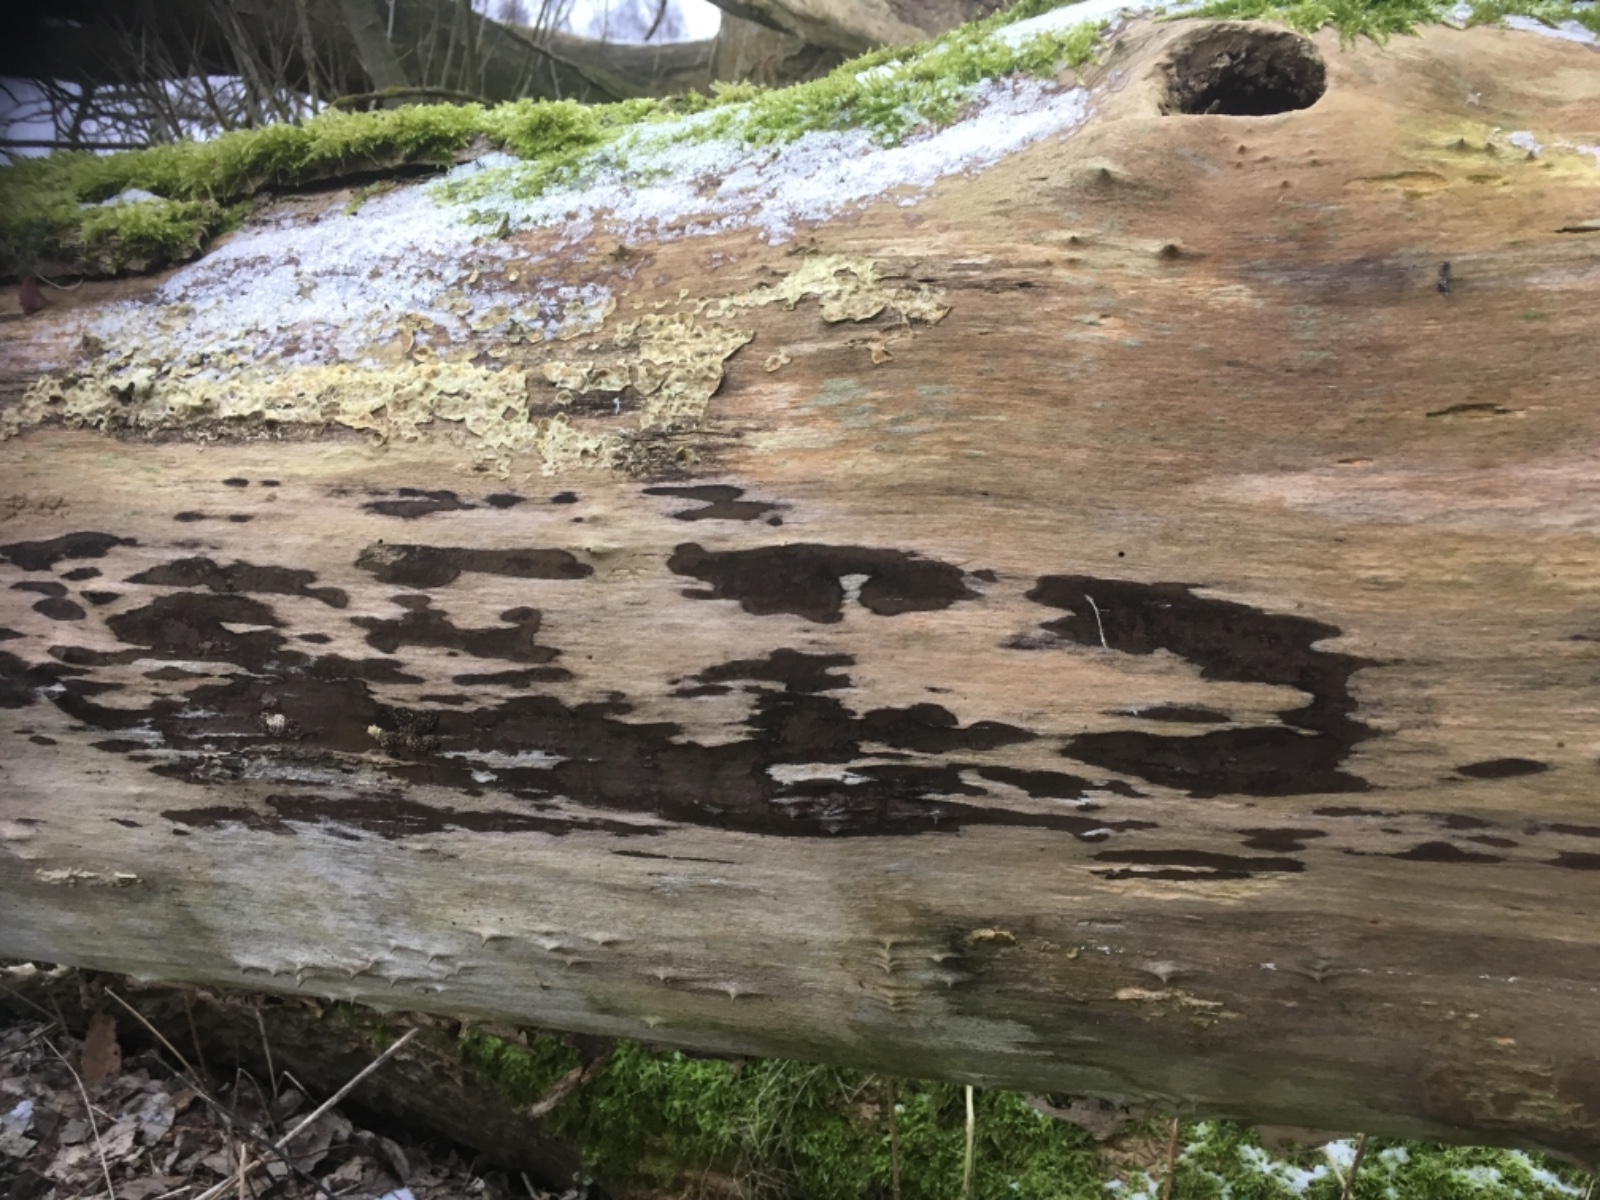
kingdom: Fungi
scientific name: Fungi
